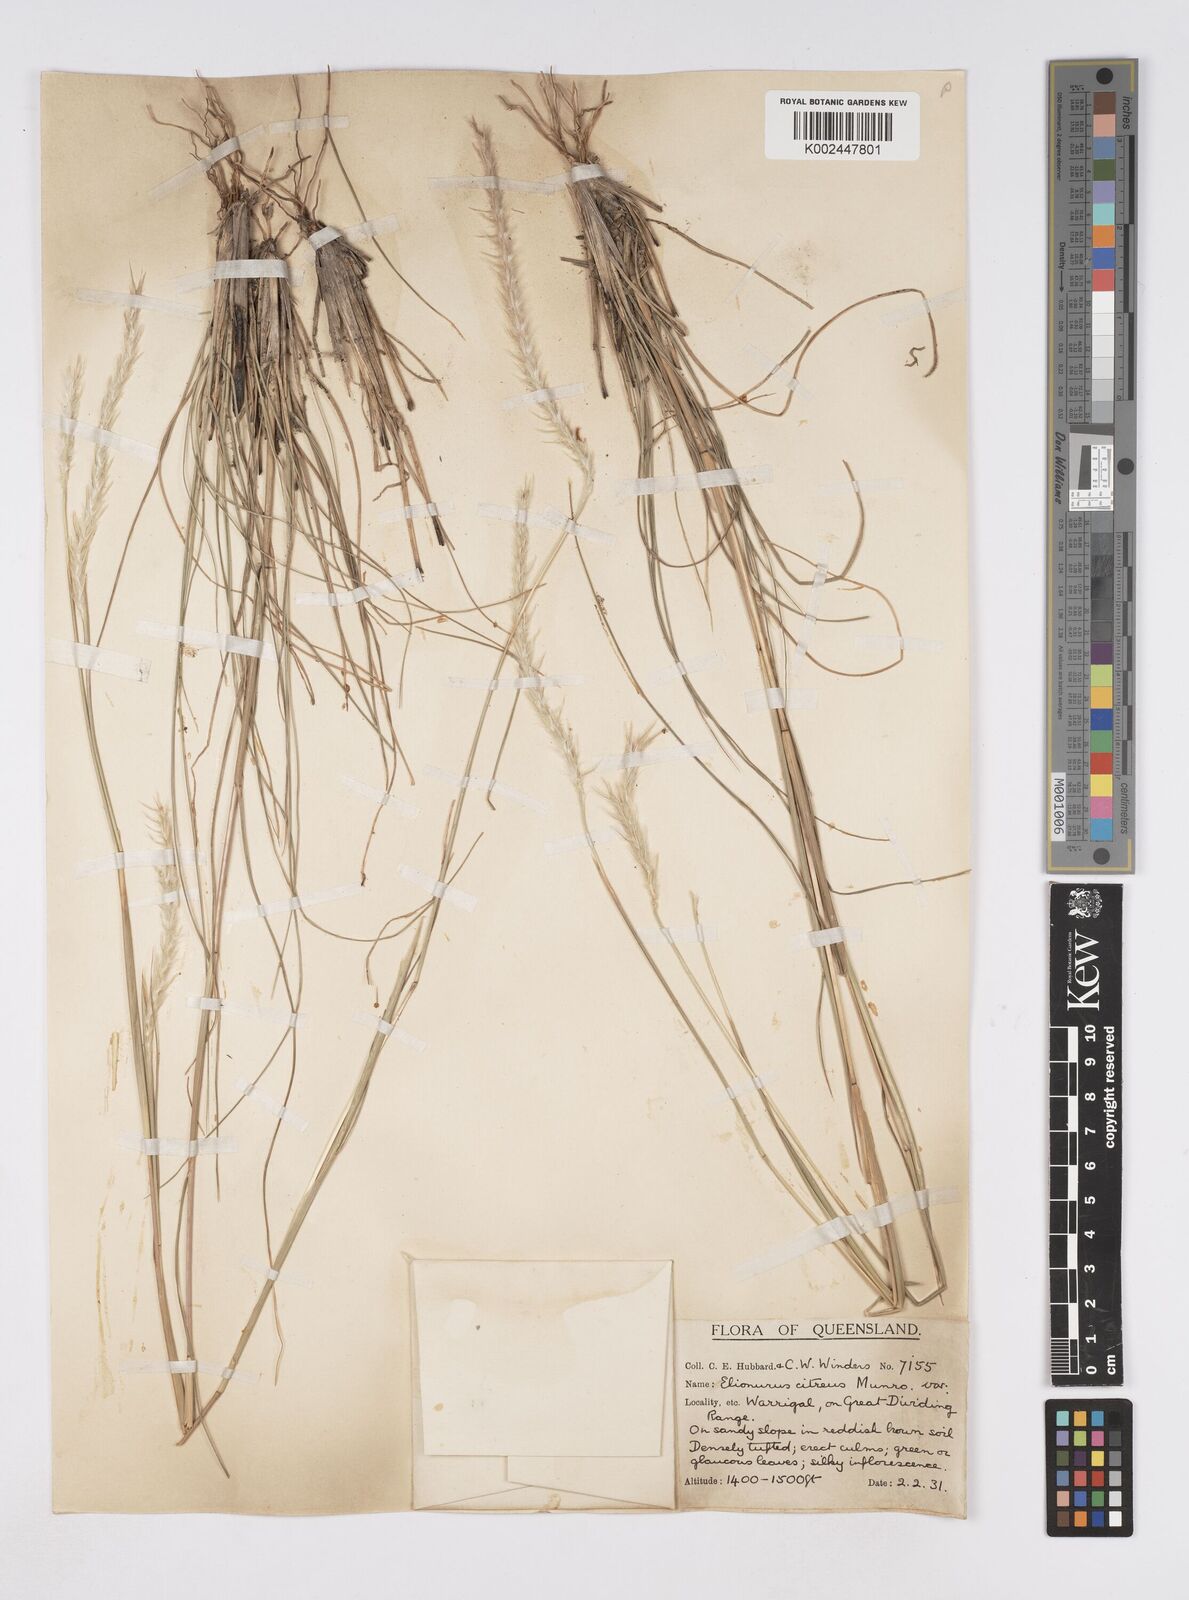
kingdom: Plantae
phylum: Tracheophyta
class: Liliopsida
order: Poales
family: Poaceae
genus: Elionurus
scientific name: Elionurus citreus
